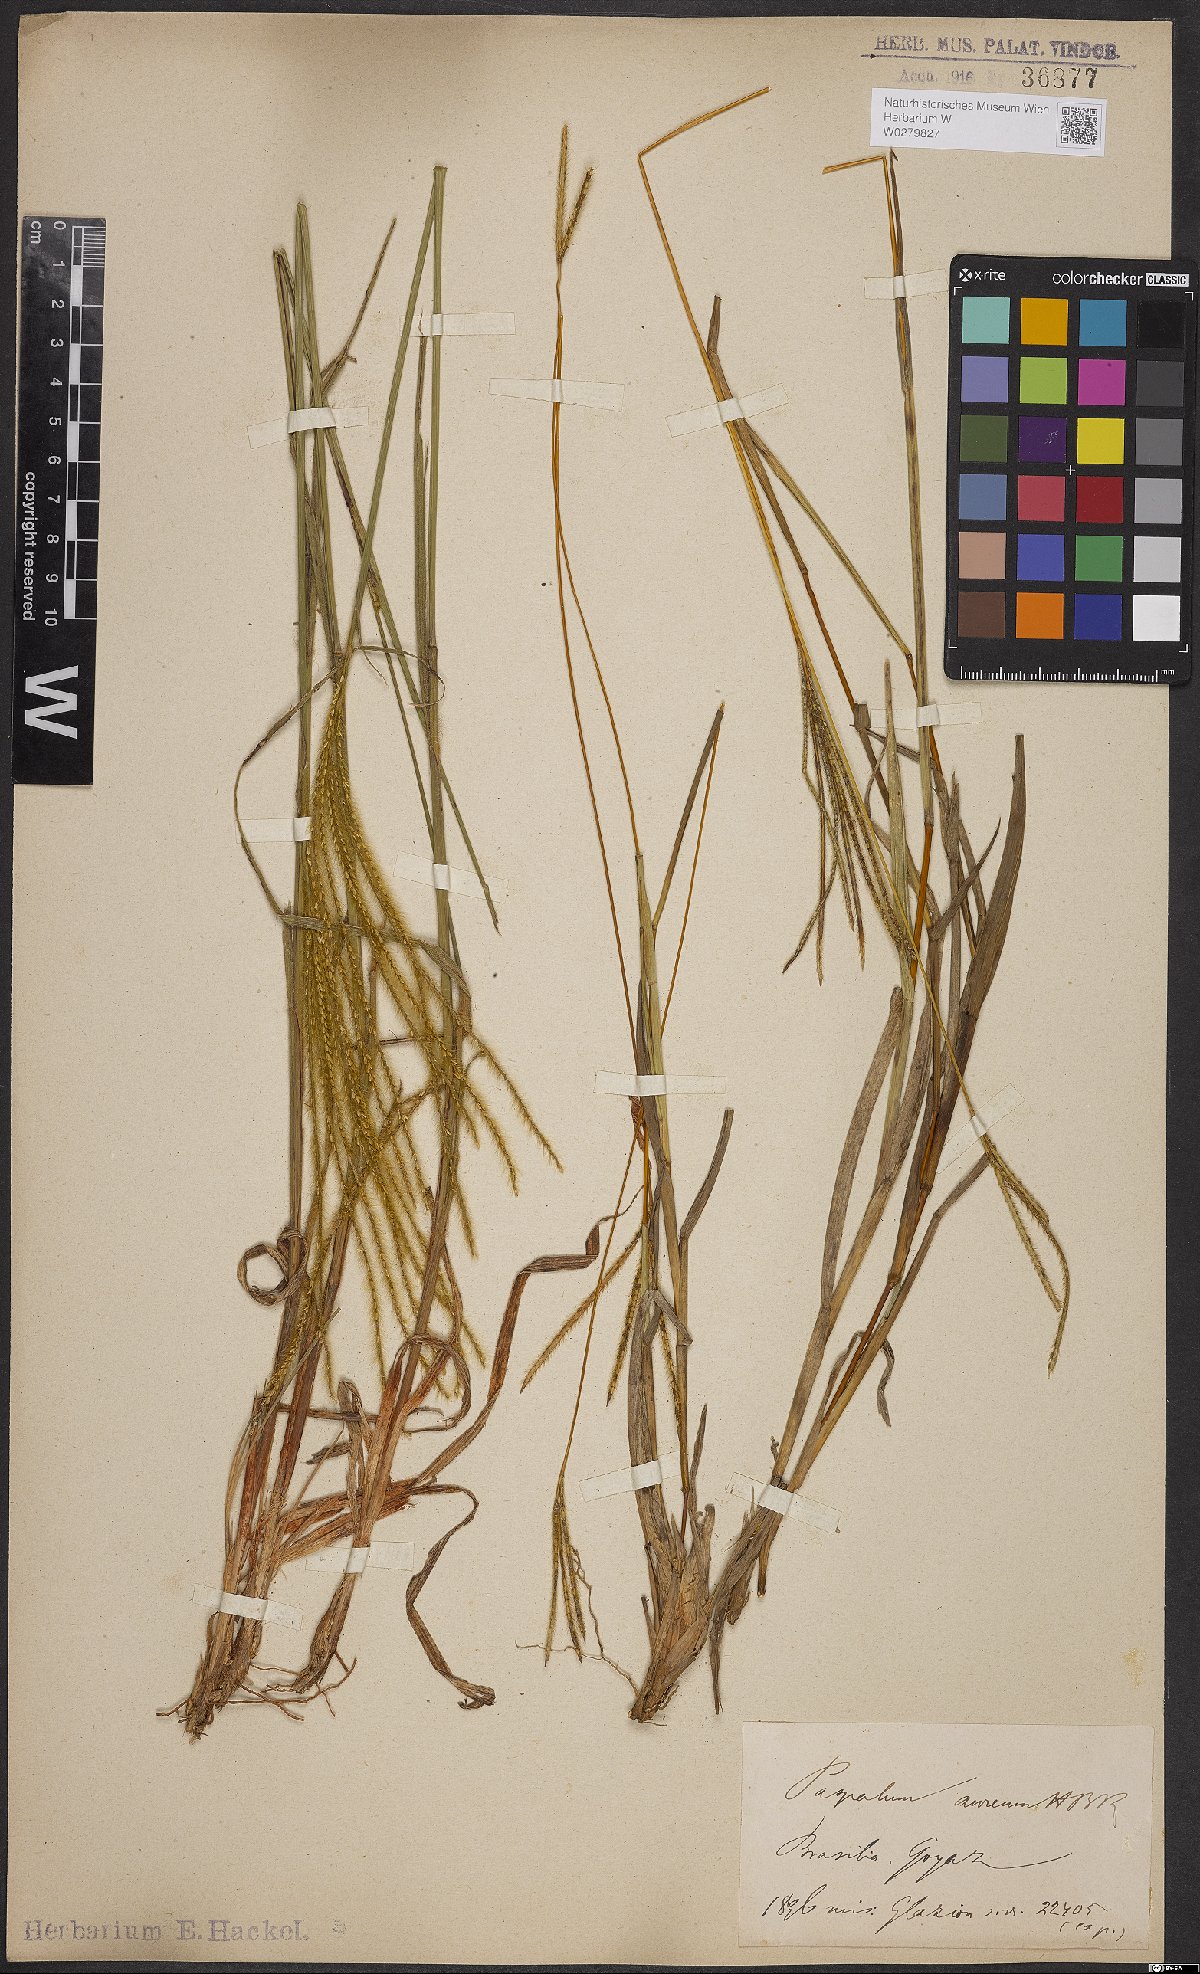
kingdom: Plantae
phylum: Tracheophyta
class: Liliopsida
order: Poales
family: Poaceae
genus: Axonopus
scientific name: Axonopus aureus
